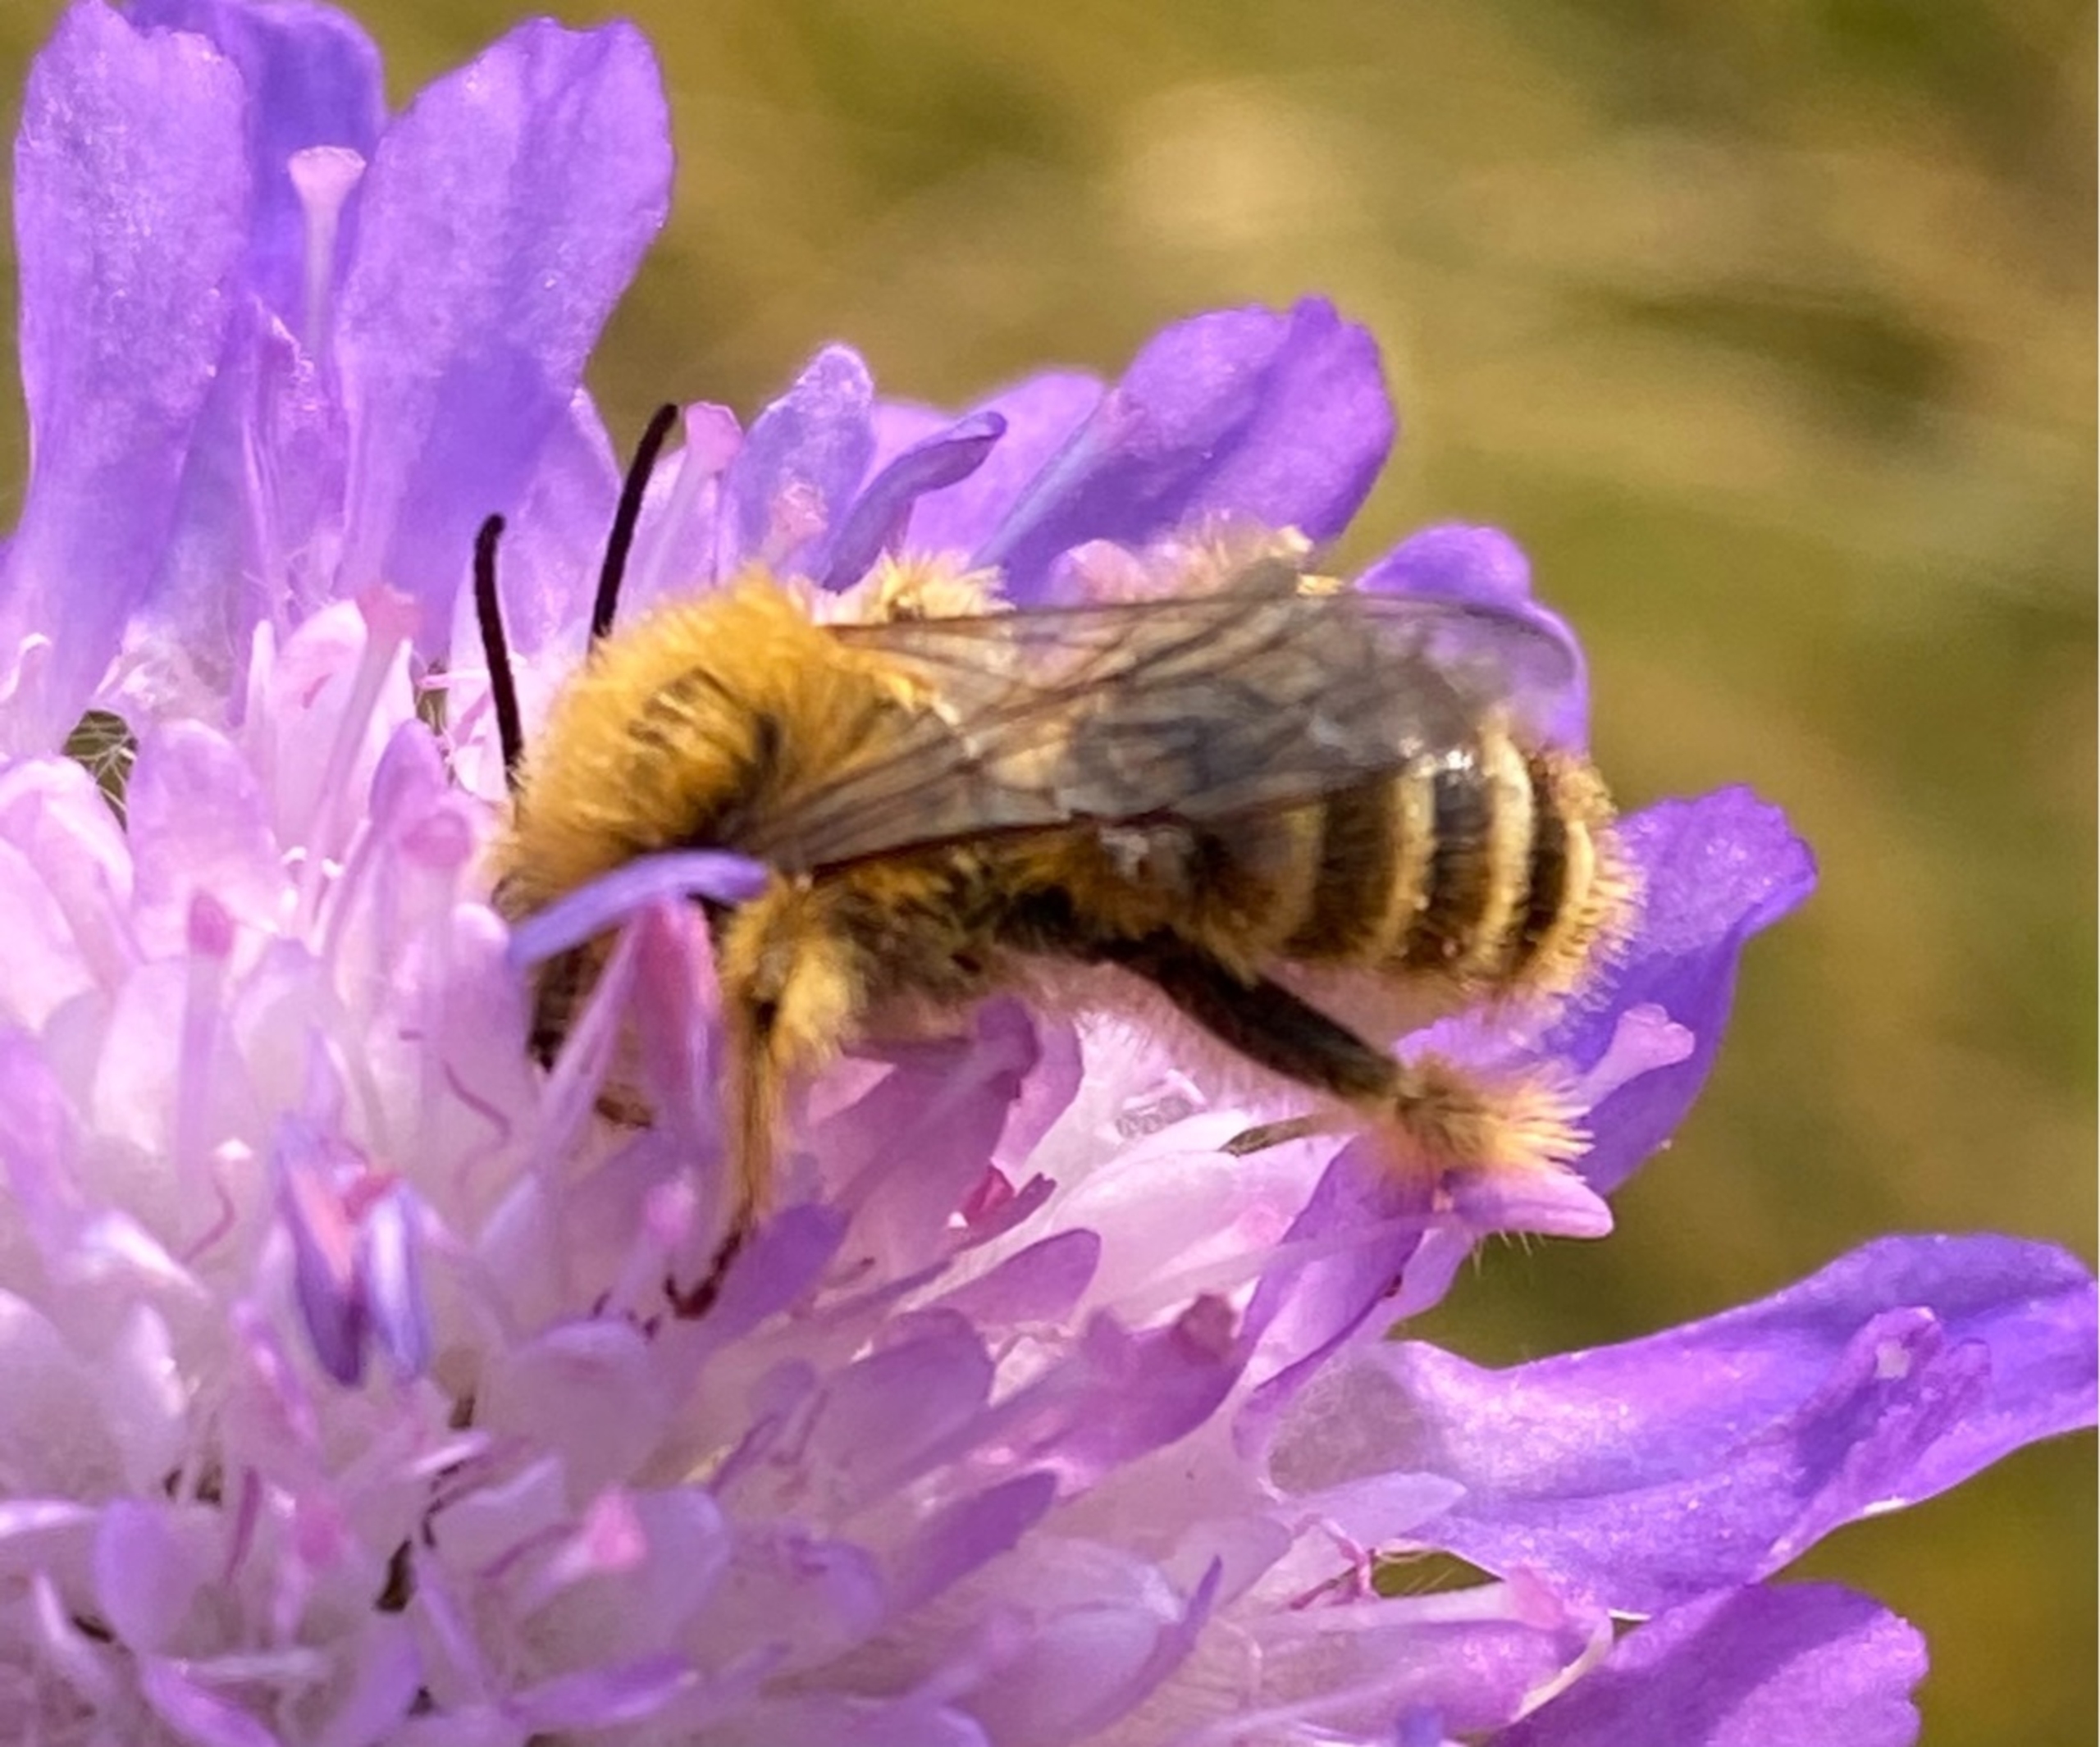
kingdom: Animalia
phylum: Arthropoda
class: Insecta
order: Hymenoptera
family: Melittidae
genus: Dasypoda
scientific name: Dasypoda hirtipes
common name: Pragtbuksebi
